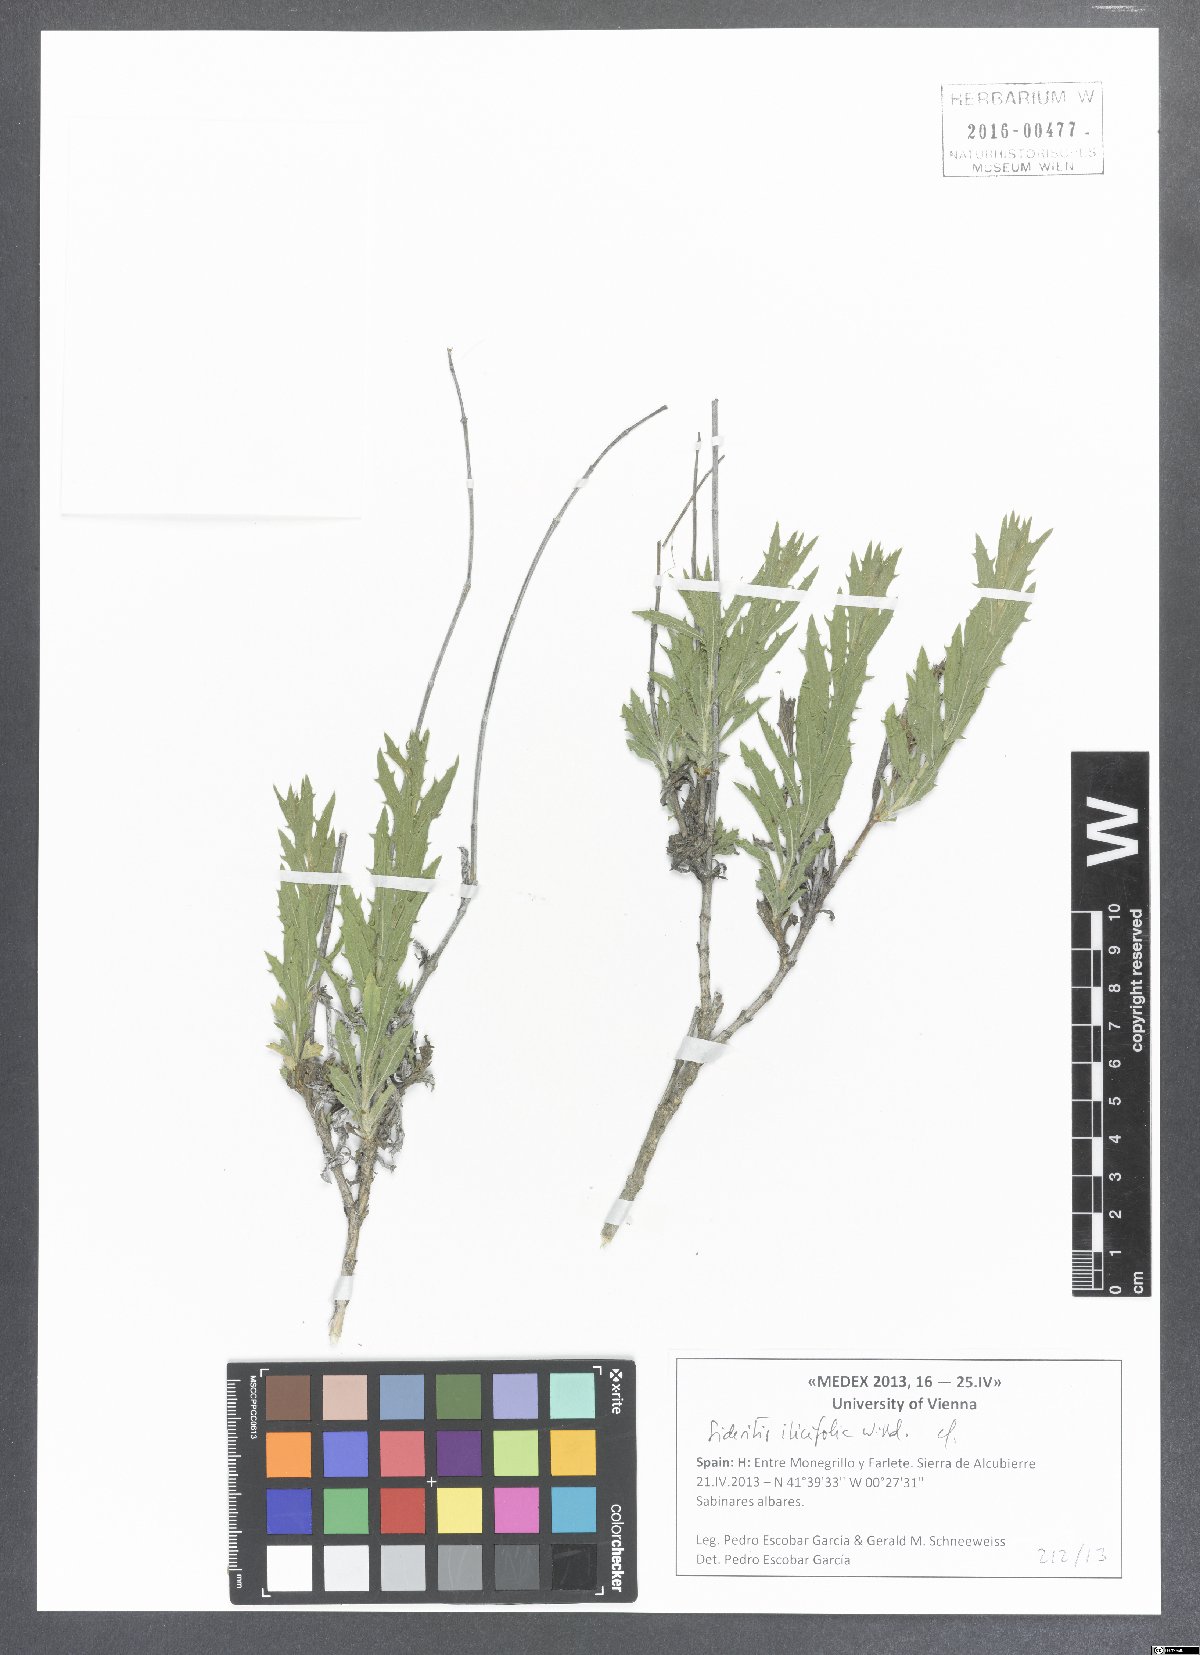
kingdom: Plantae
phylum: Tracheophyta
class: Magnoliopsida
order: Lamiales
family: Lamiaceae
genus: Sideritis
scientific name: Sideritis ilicifolia
